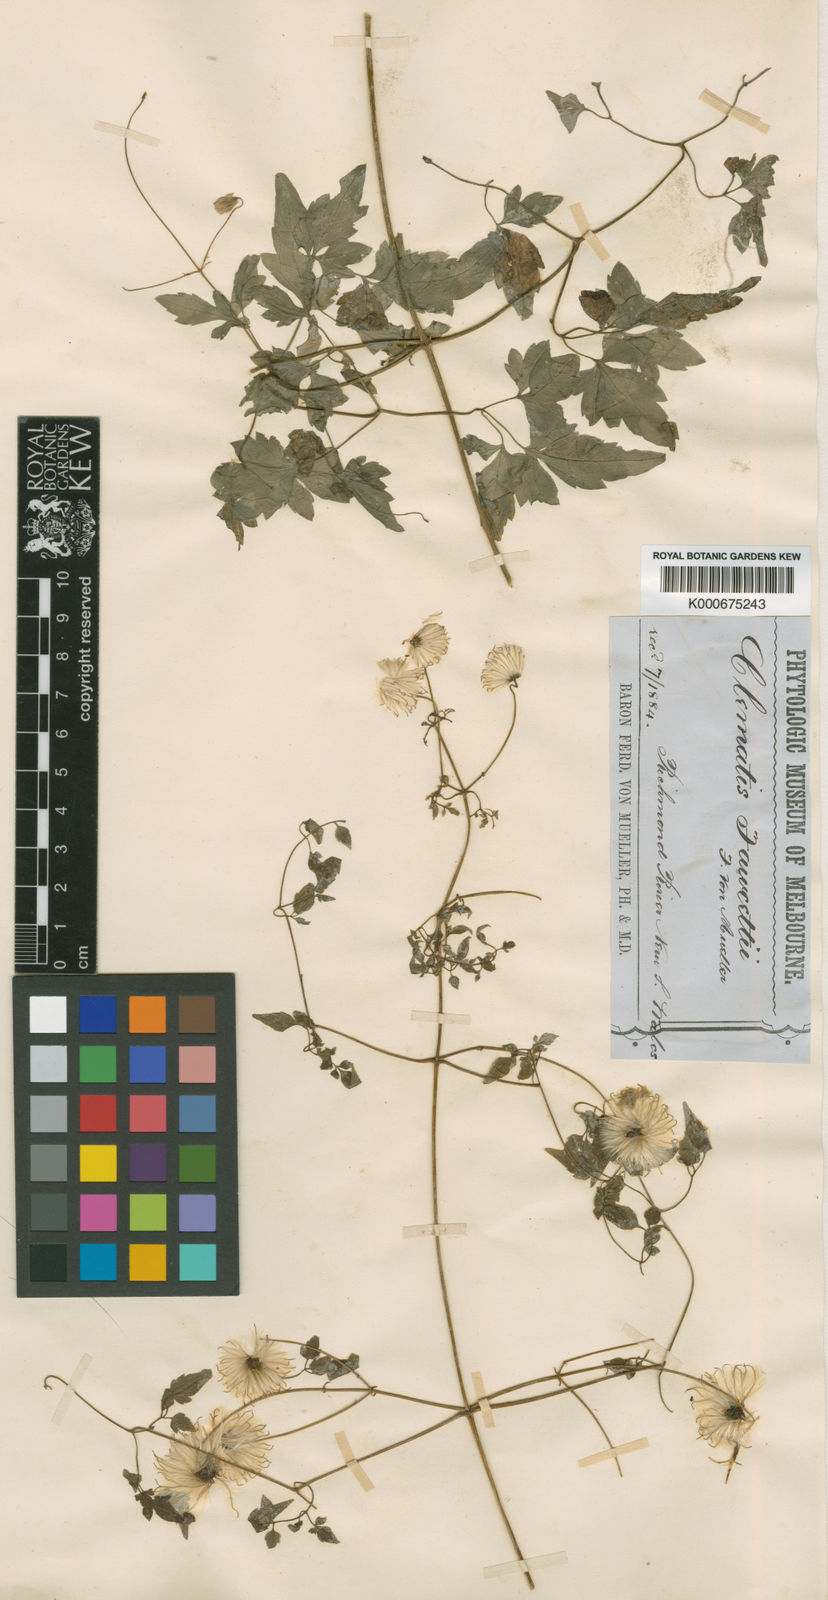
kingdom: Plantae
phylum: Tracheophyta
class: Magnoliopsida
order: Ranunculales
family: Ranunculaceae
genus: Clematis
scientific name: Clematis fawcettii
